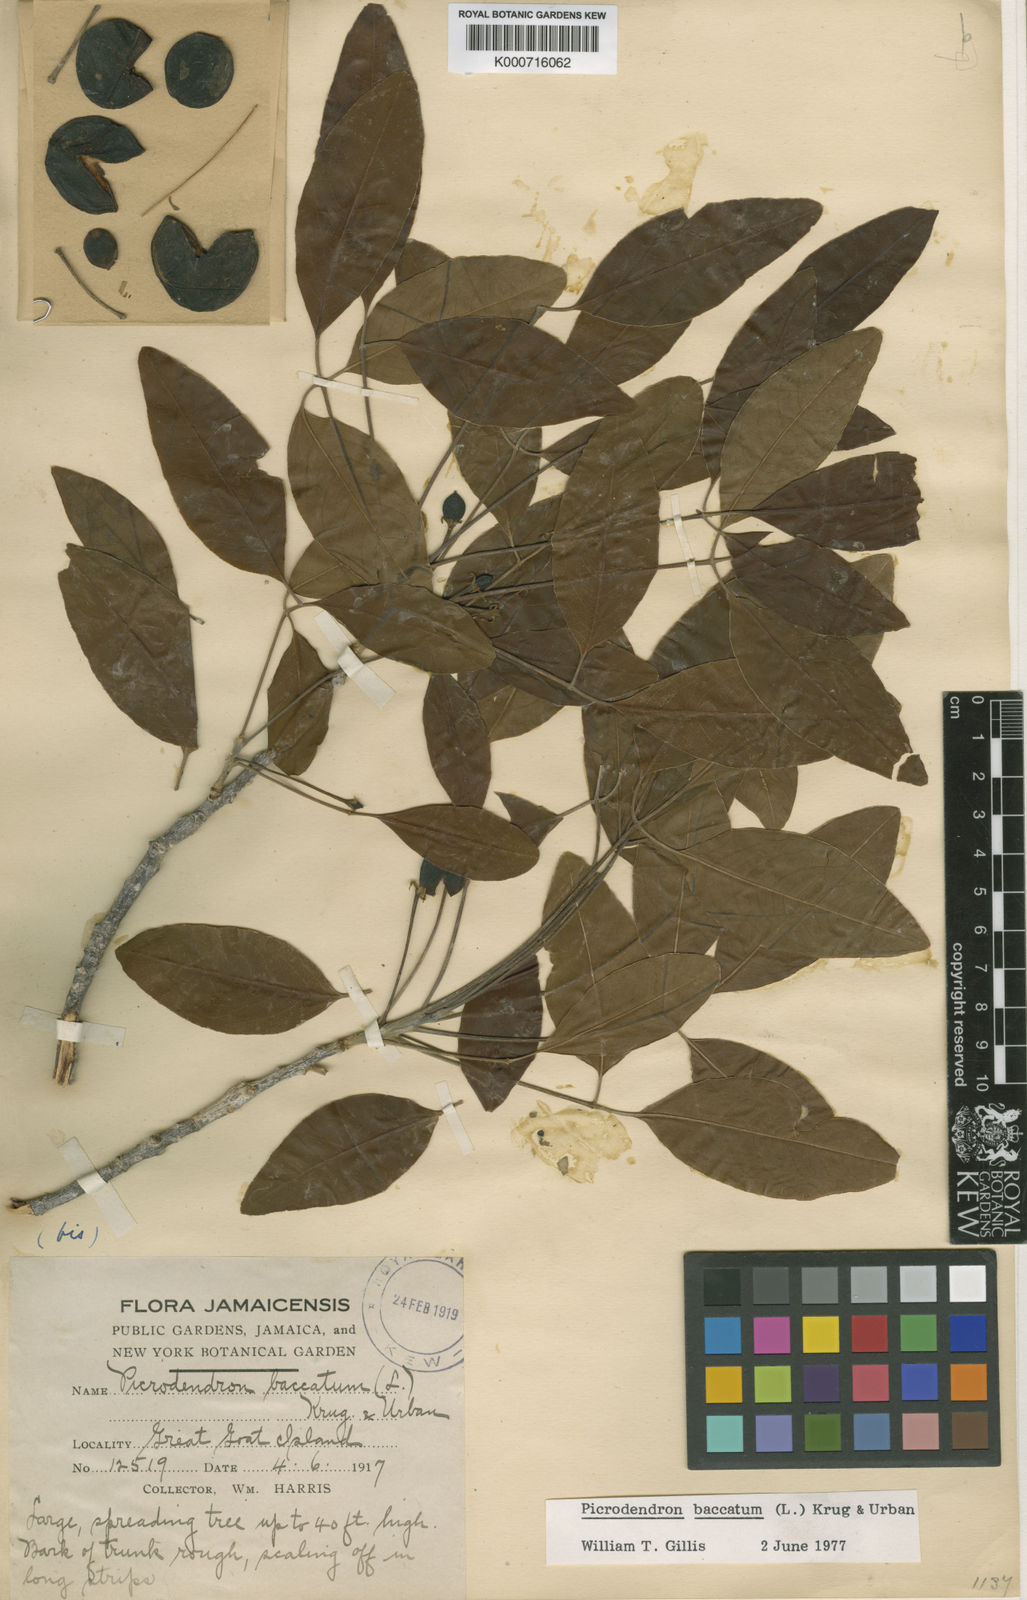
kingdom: Plantae
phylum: Tracheophyta
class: Magnoliopsida
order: Malpighiales
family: Picrodendraceae
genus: Picrodendron
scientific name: Picrodendron baccatum
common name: Jamaica-walnut
